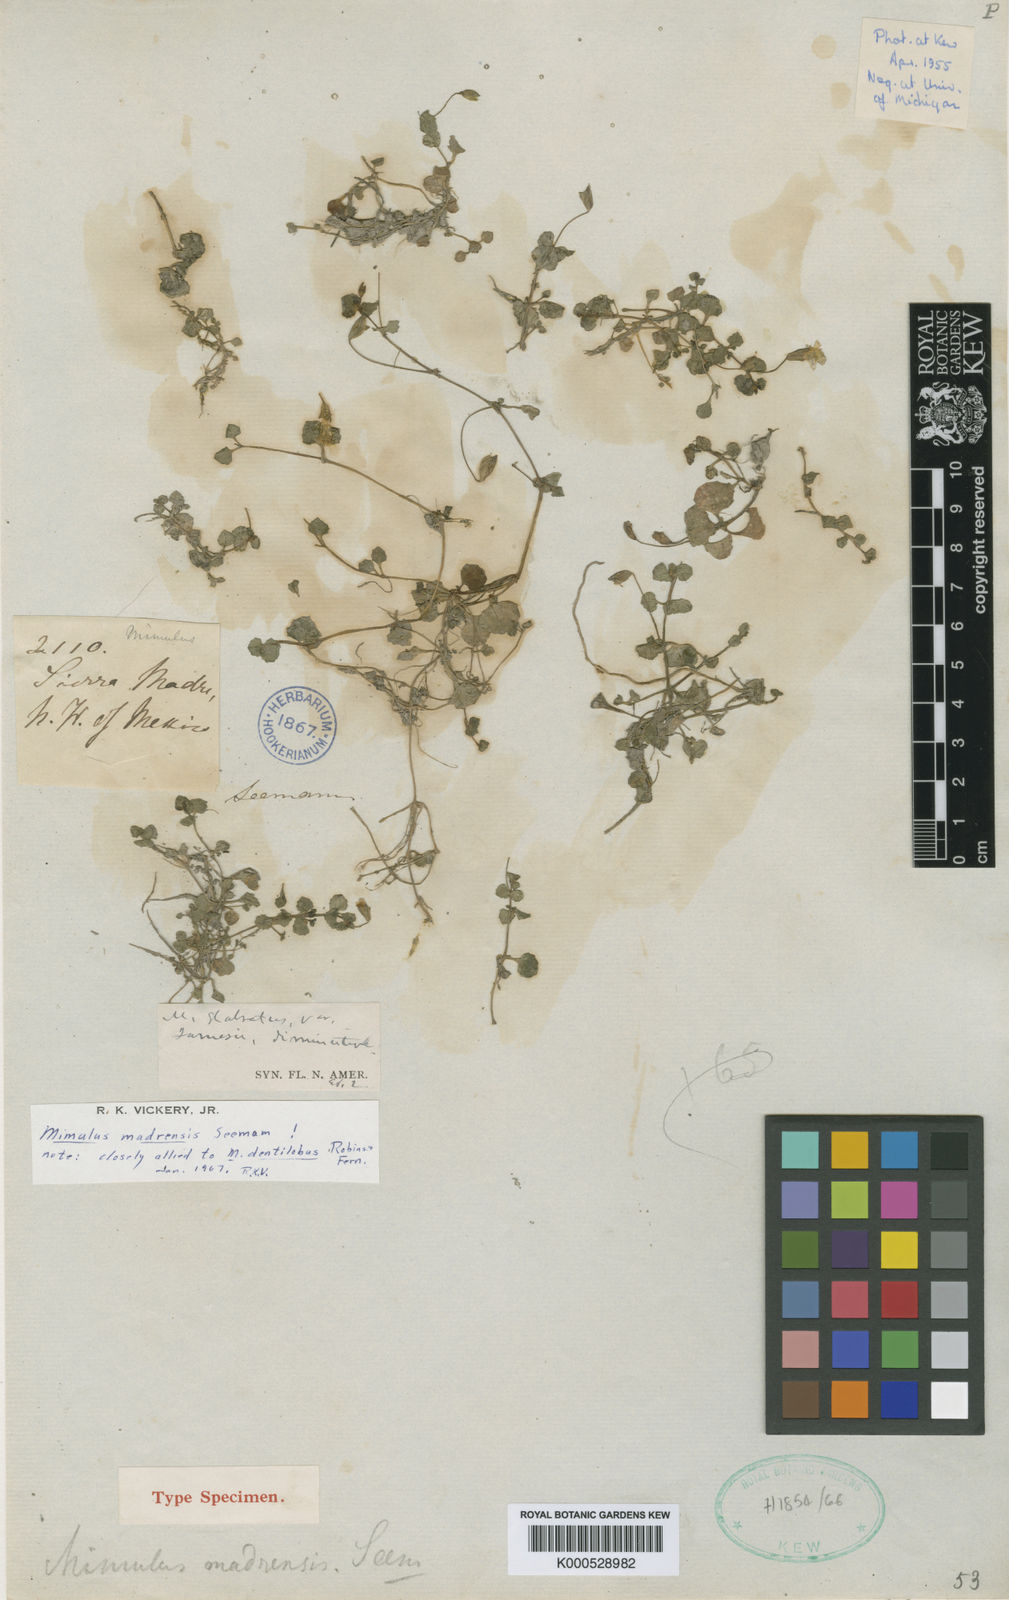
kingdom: Plantae
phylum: Tracheophyta
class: Magnoliopsida
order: Lamiales
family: Phrymaceae
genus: Erythranthe
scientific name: Erythranthe madrensis
